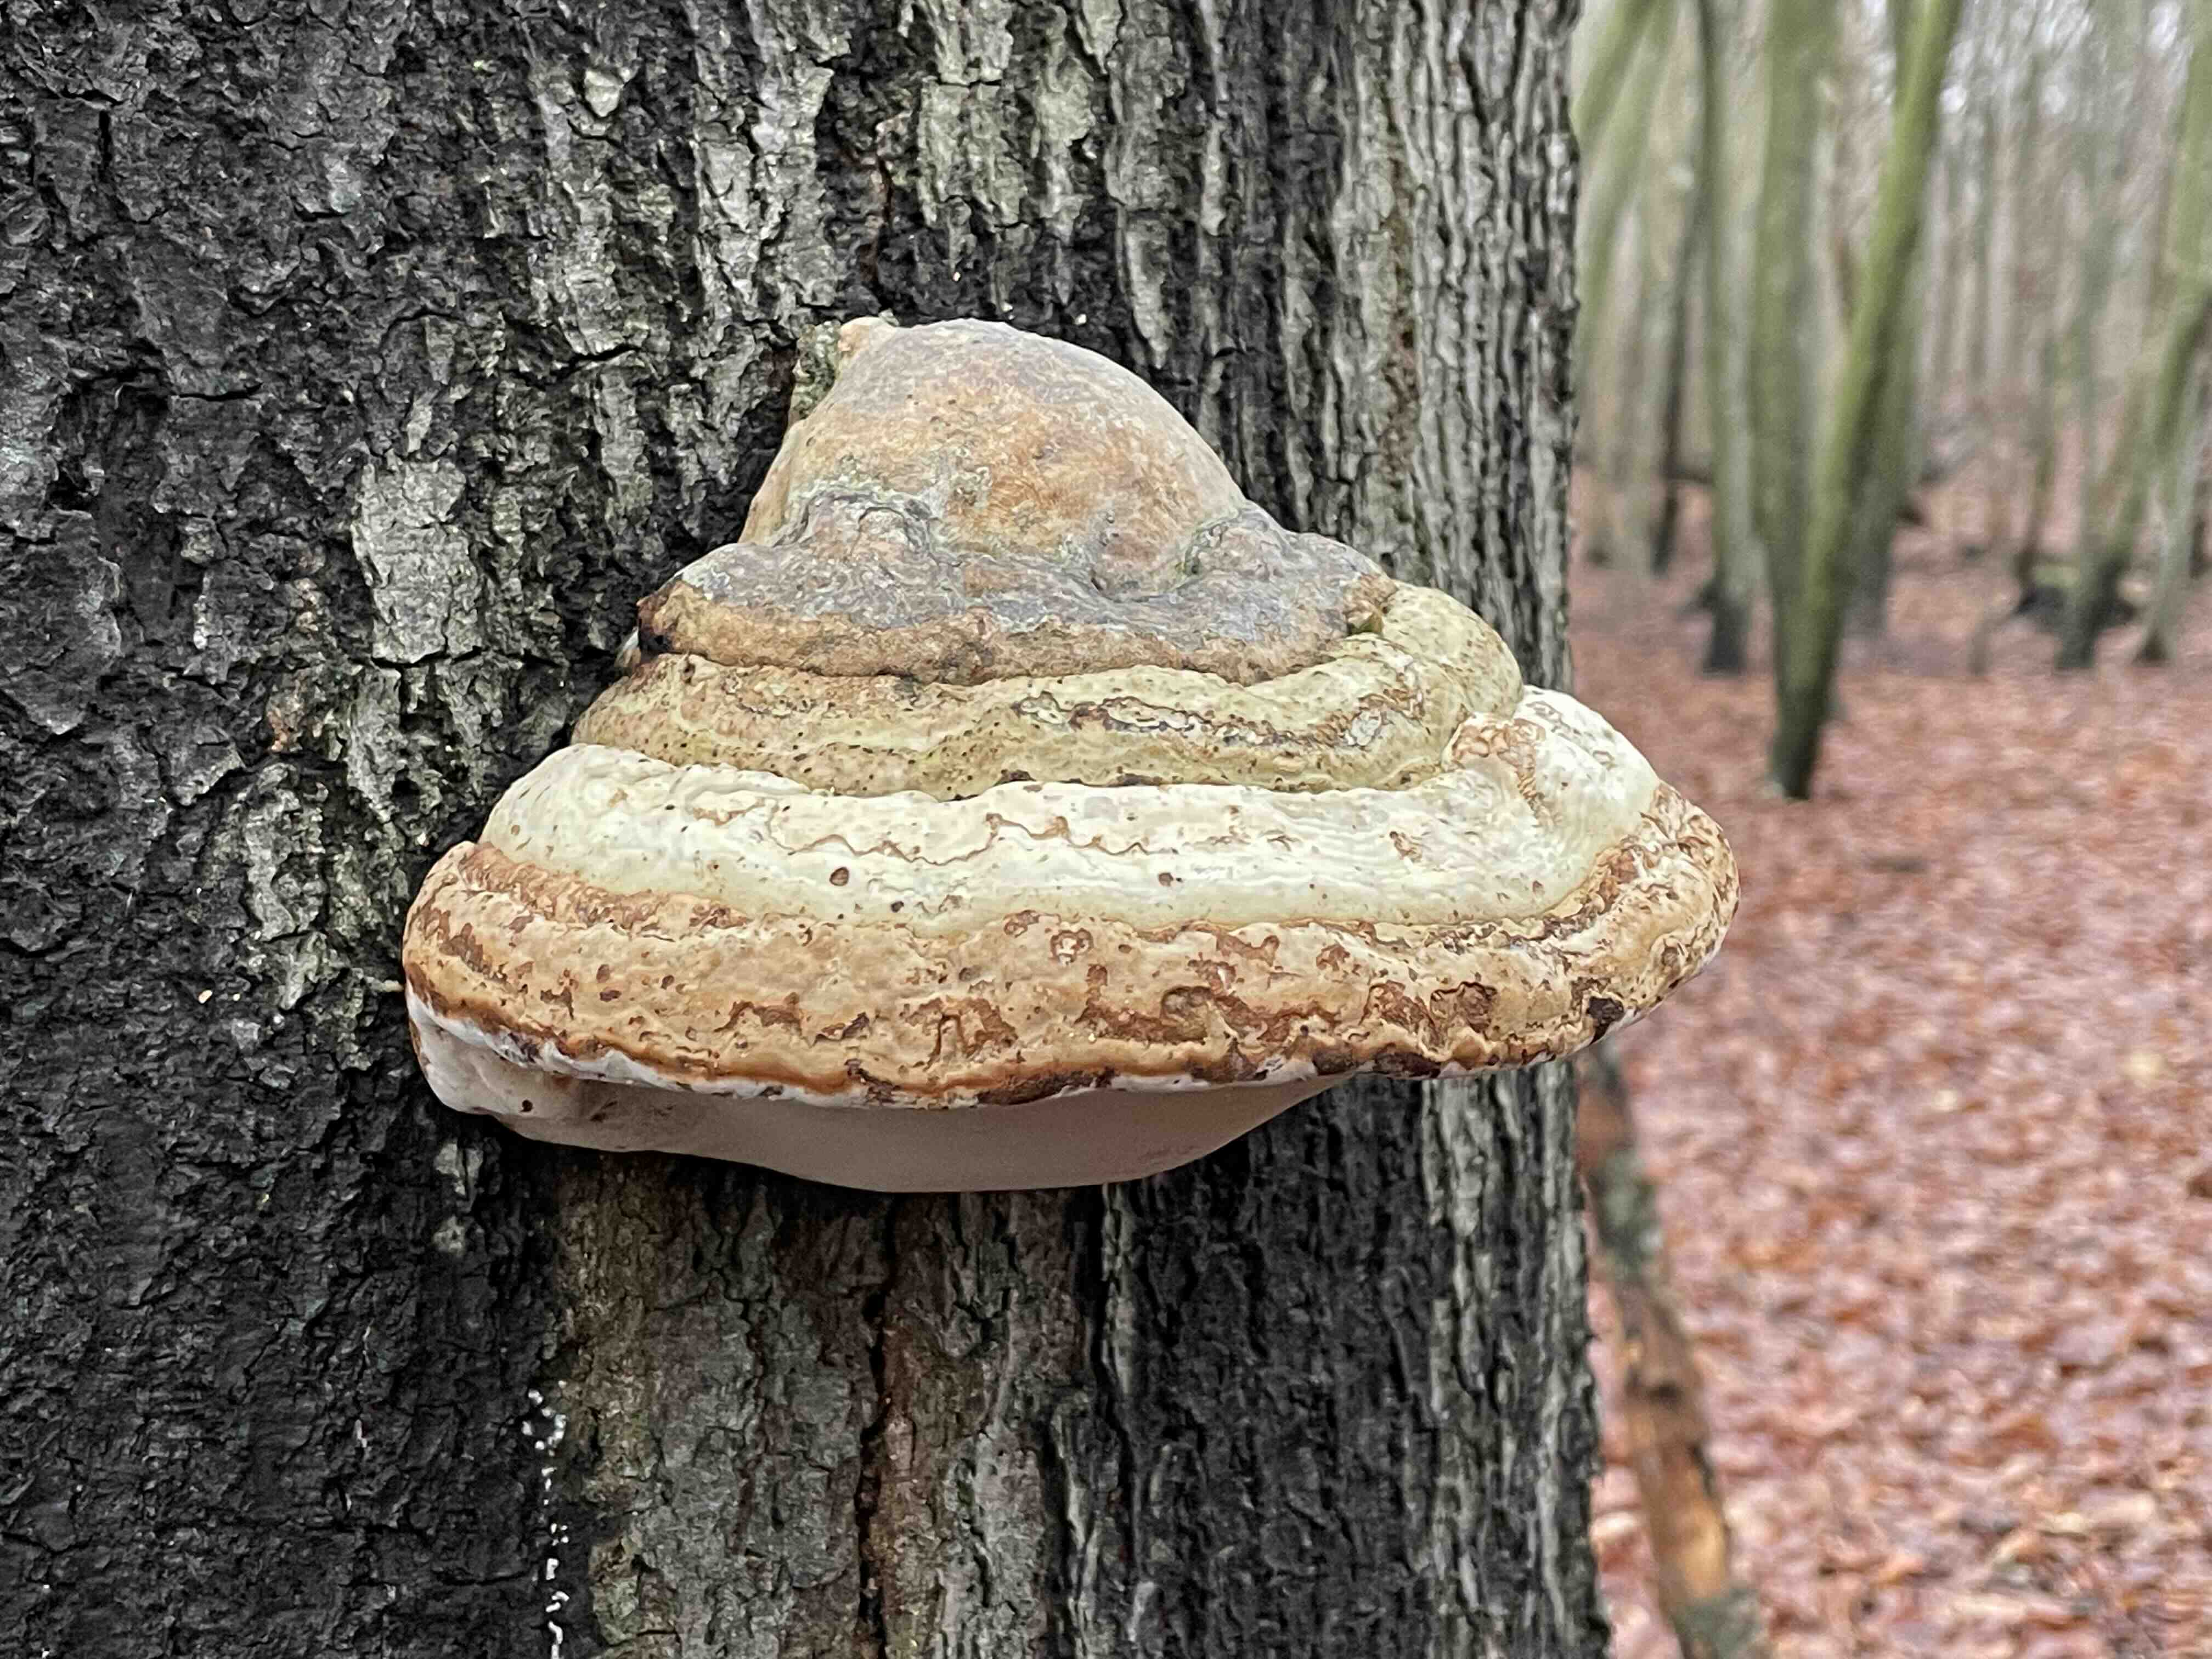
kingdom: Fungi
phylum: Basidiomycota
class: Agaricomycetes
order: Polyporales
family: Polyporaceae
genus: Fomes
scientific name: Fomes fomentarius
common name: tøndersvamp
